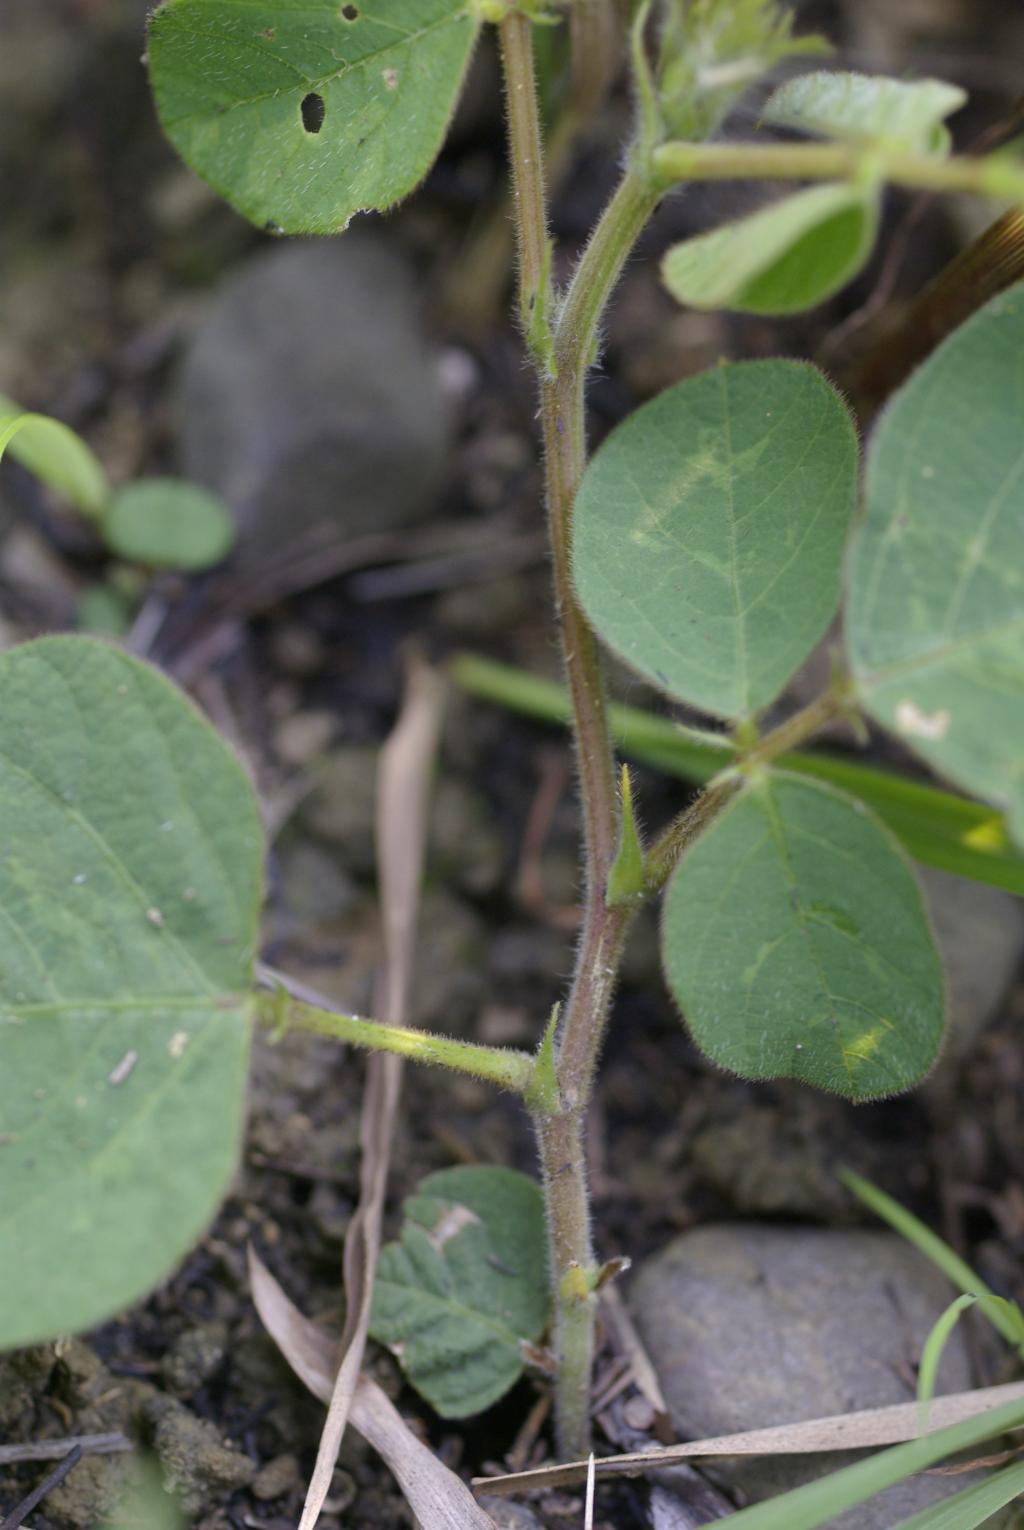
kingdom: Plantae
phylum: Tracheophyta
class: Magnoliopsida
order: Fabales
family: Fabaceae
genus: Uraria
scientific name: Uraria lagopodioides
